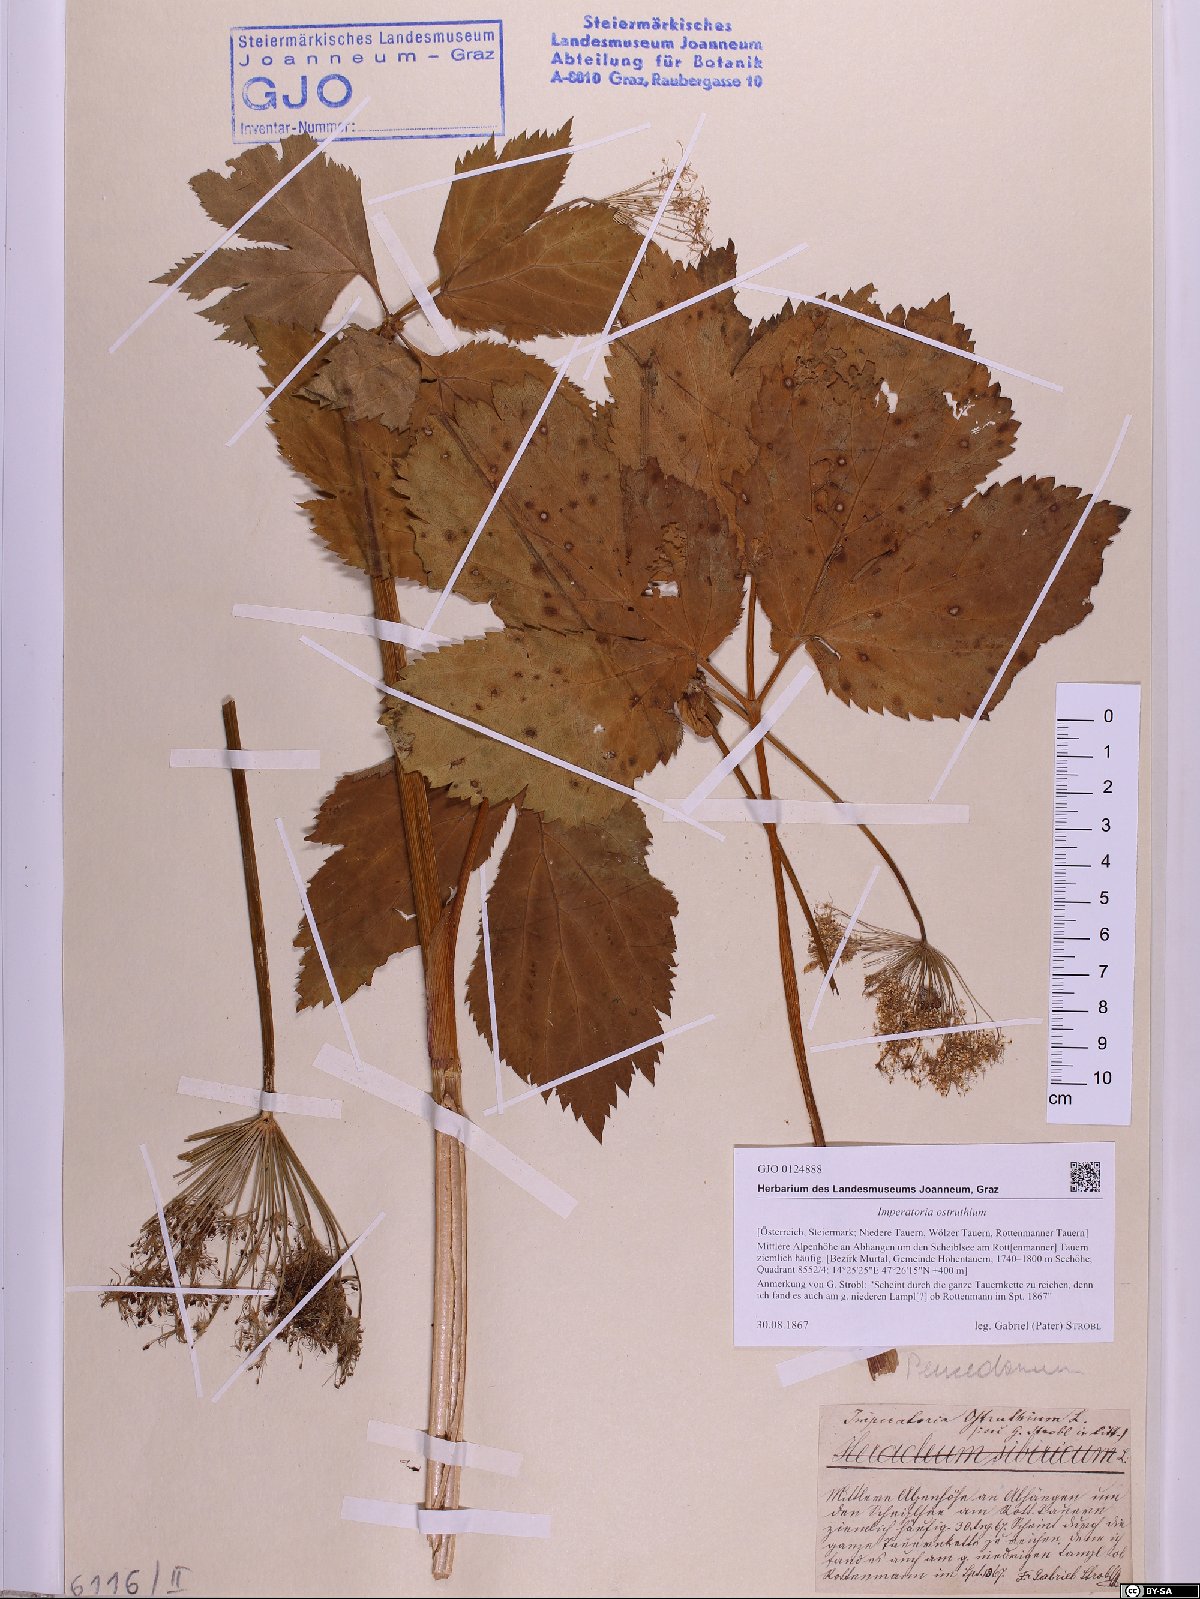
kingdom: Plantae
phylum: Tracheophyta
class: Magnoliopsida
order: Apiales
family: Apiaceae
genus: Imperatoria
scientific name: Imperatoria ostruthium
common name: Masterwort
